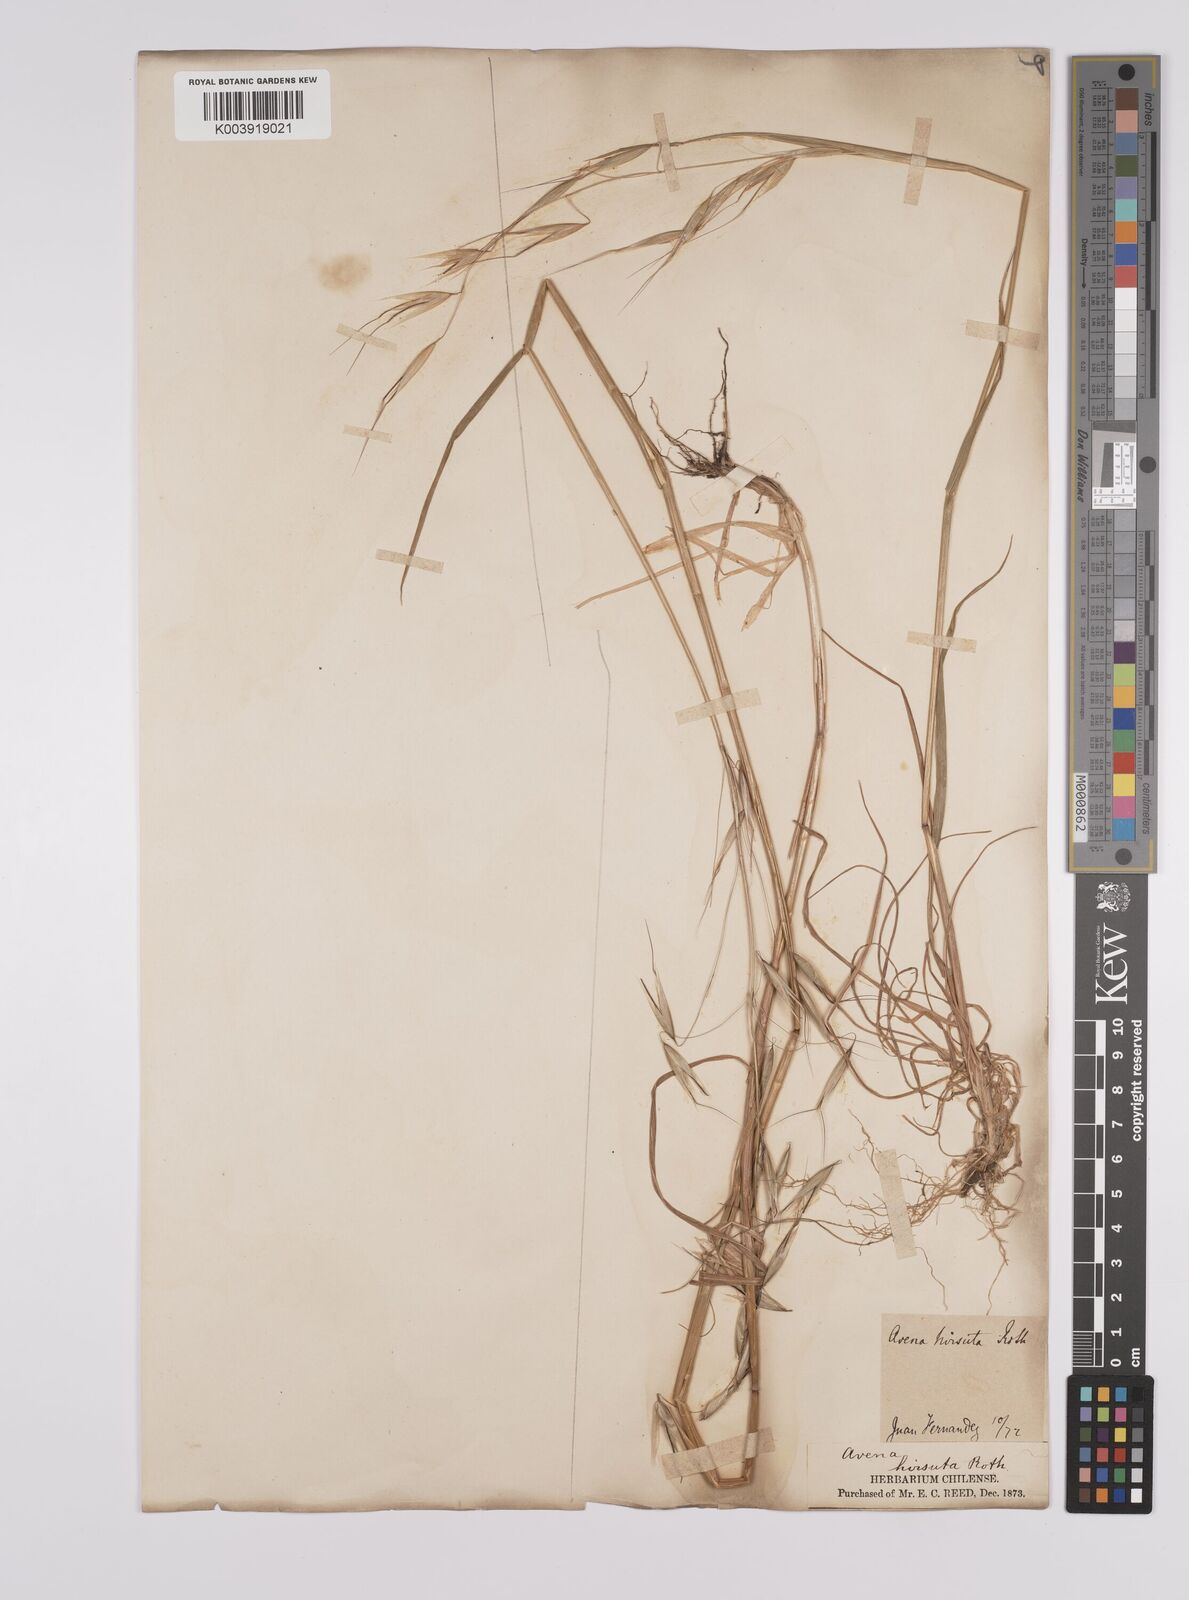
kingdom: Plantae
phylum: Tracheophyta
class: Liliopsida
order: Poales
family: Poaceae
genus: Avena
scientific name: Avena barbata
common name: Slender oat
